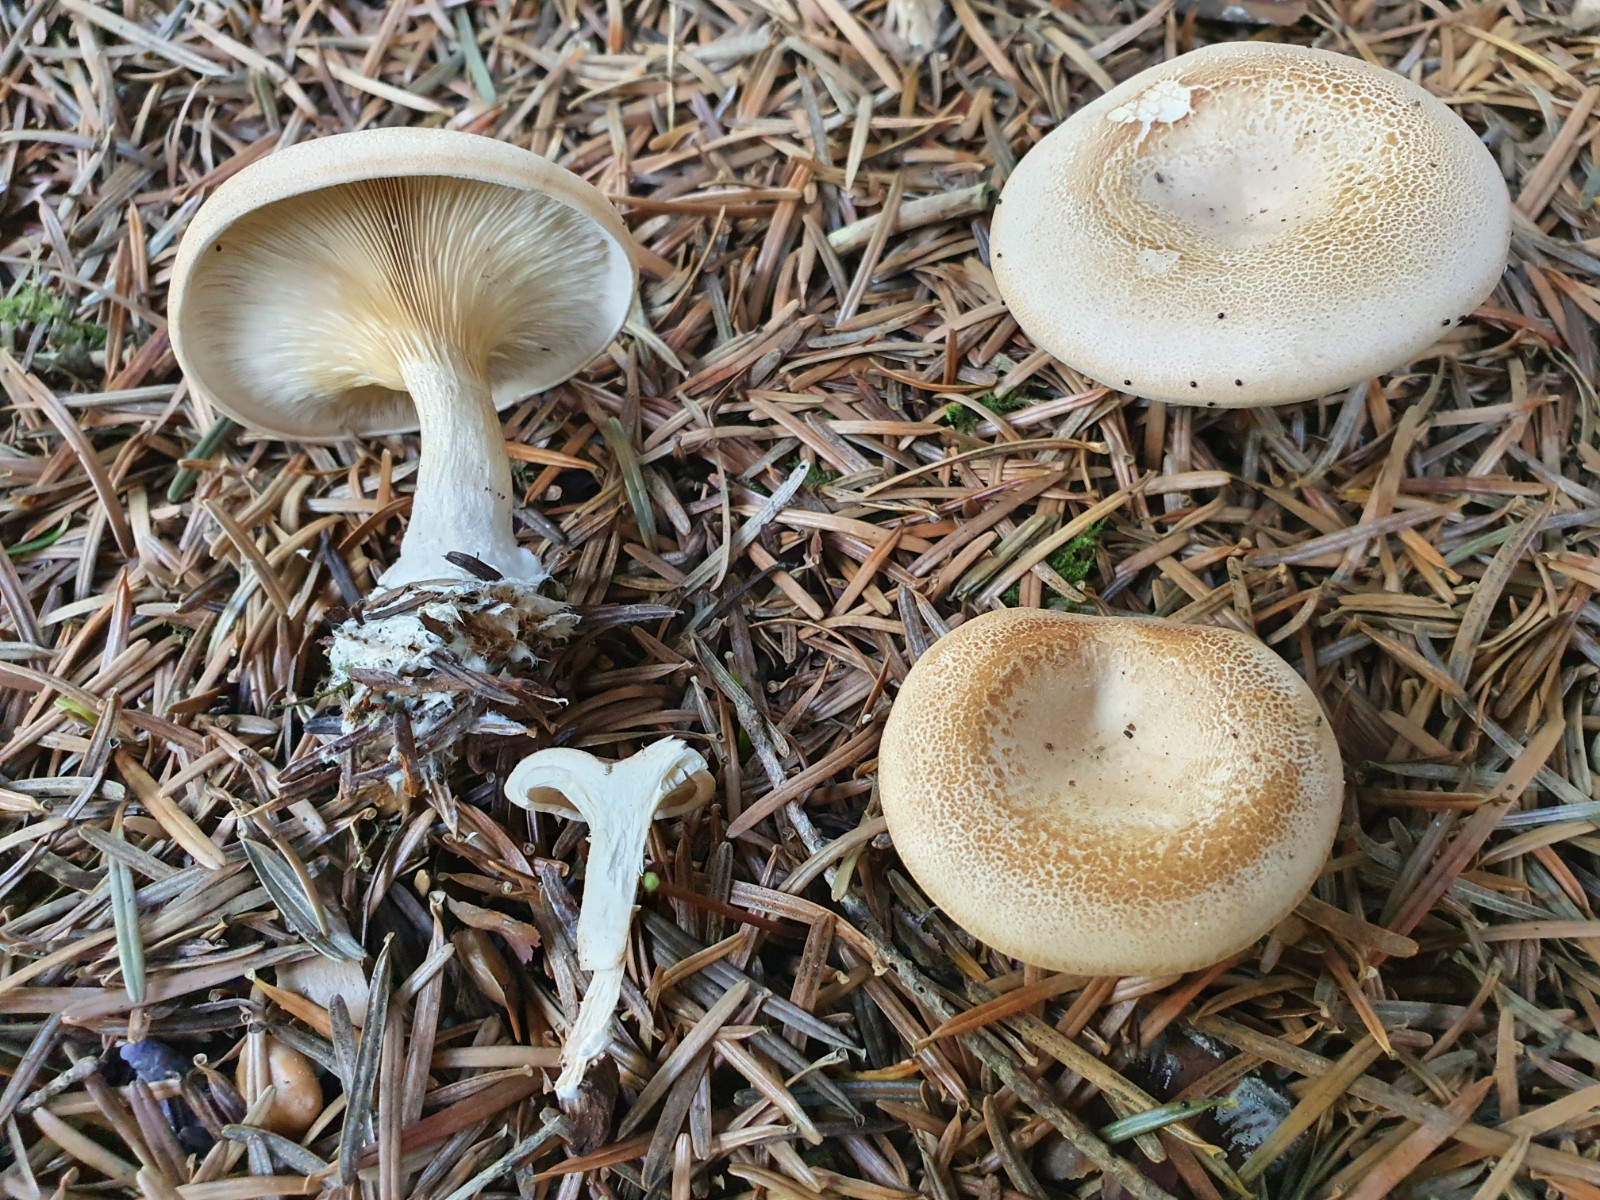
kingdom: Fungi
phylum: Basidiomycota
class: Agaricomycetes
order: Agaricales
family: Tricholomataceae
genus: Paralepista
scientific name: Paralepista gilva
